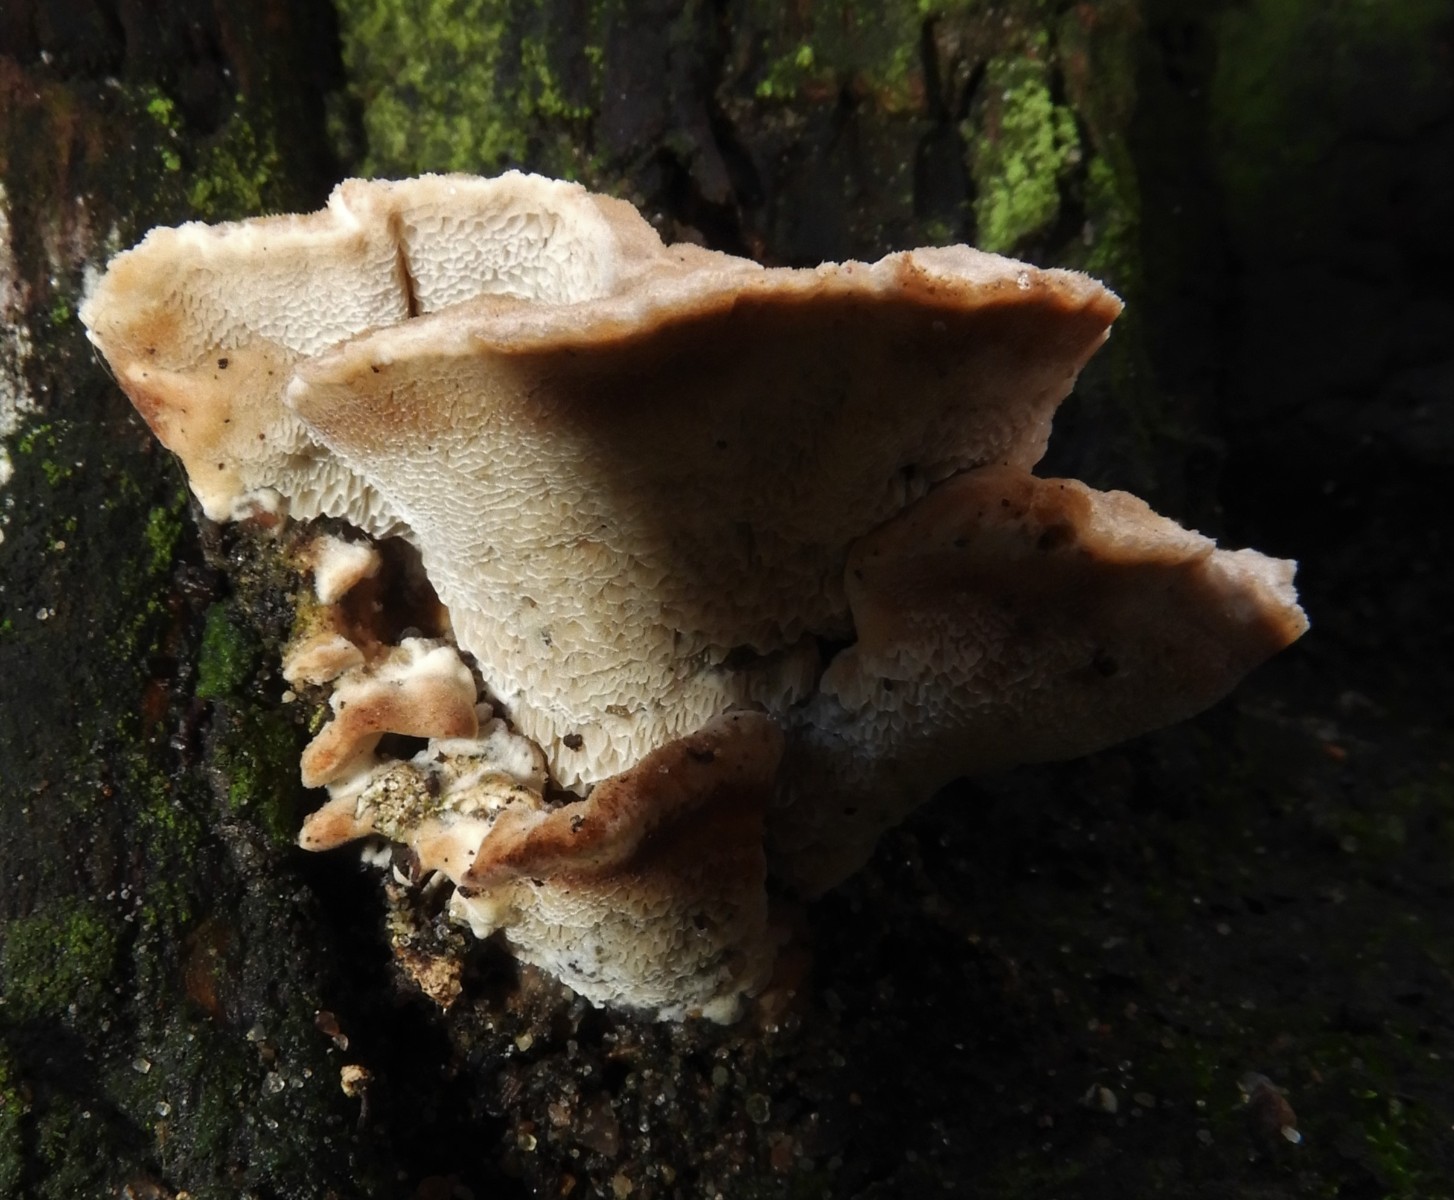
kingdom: Fungi
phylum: Basidiomycota
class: Agaricomycetes
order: Polyporales
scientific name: Polyporales
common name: poresvampordenen
